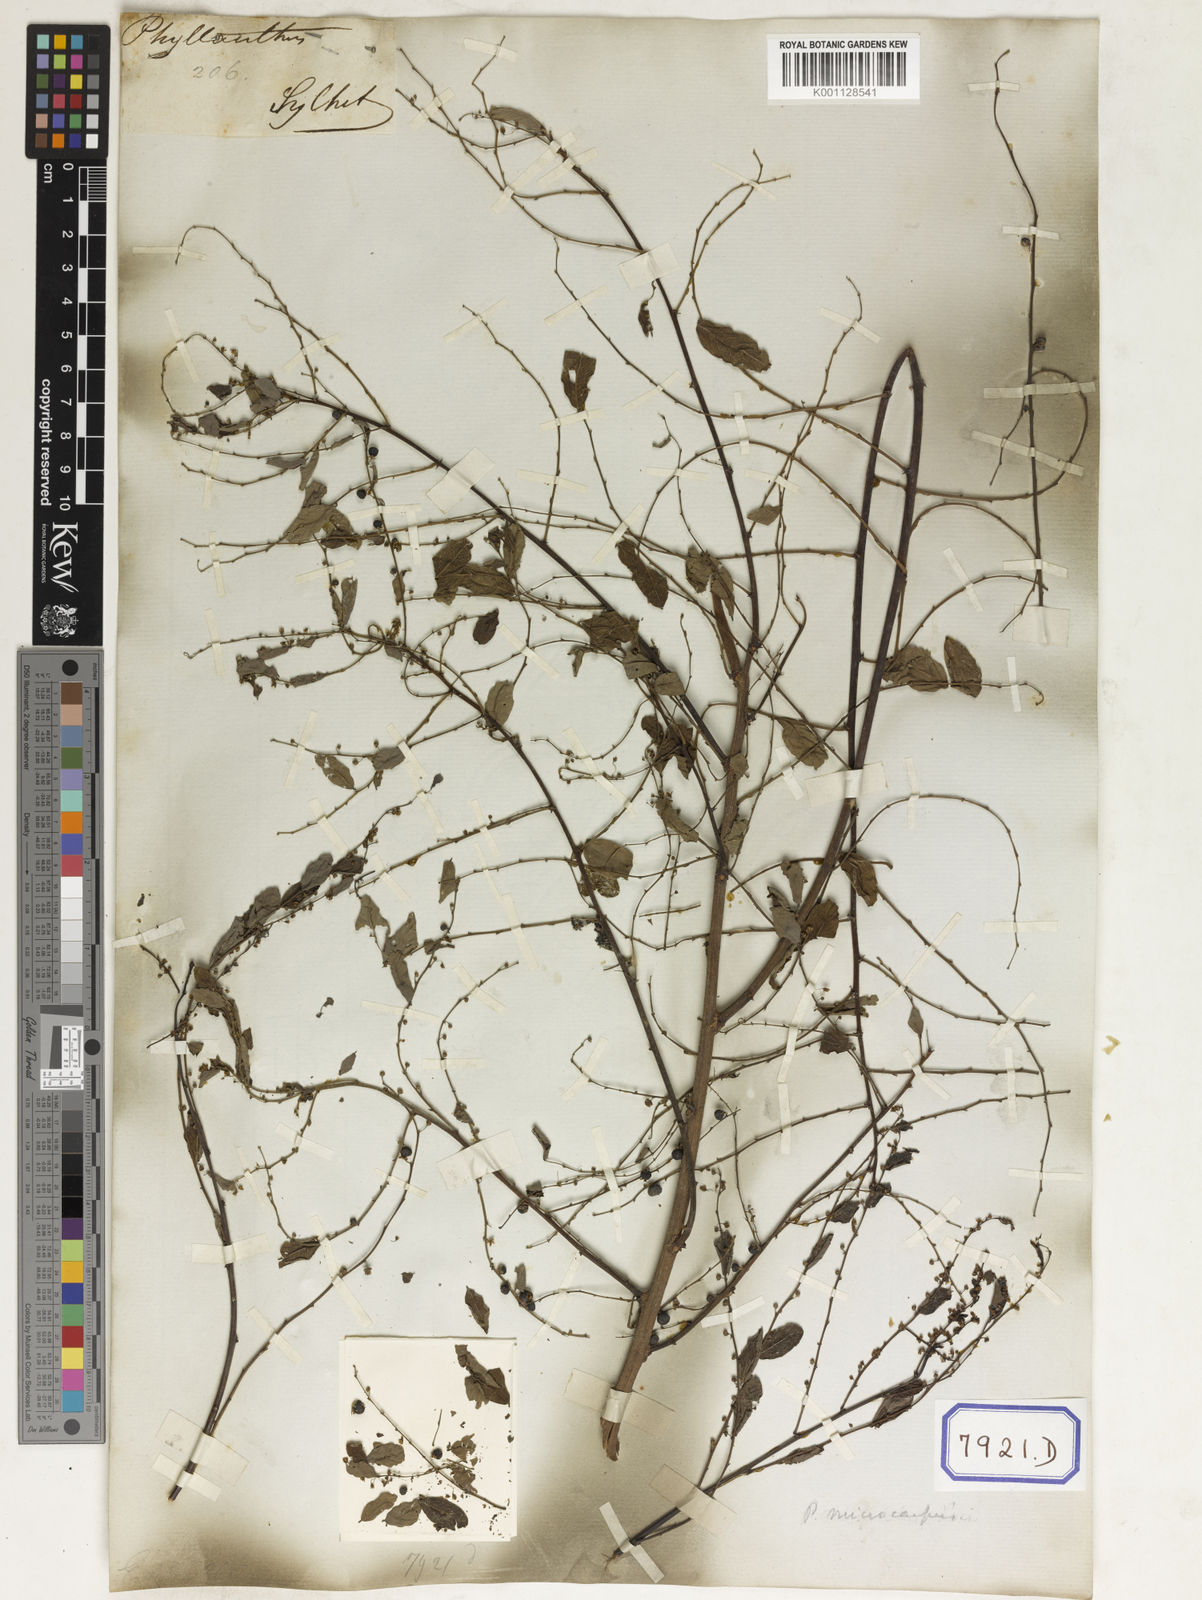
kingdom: Plantae
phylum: Tracheophyta
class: Magnoliopsida
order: Malpighiales
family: Euphorbiaceae
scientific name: Euphorbiaceae
